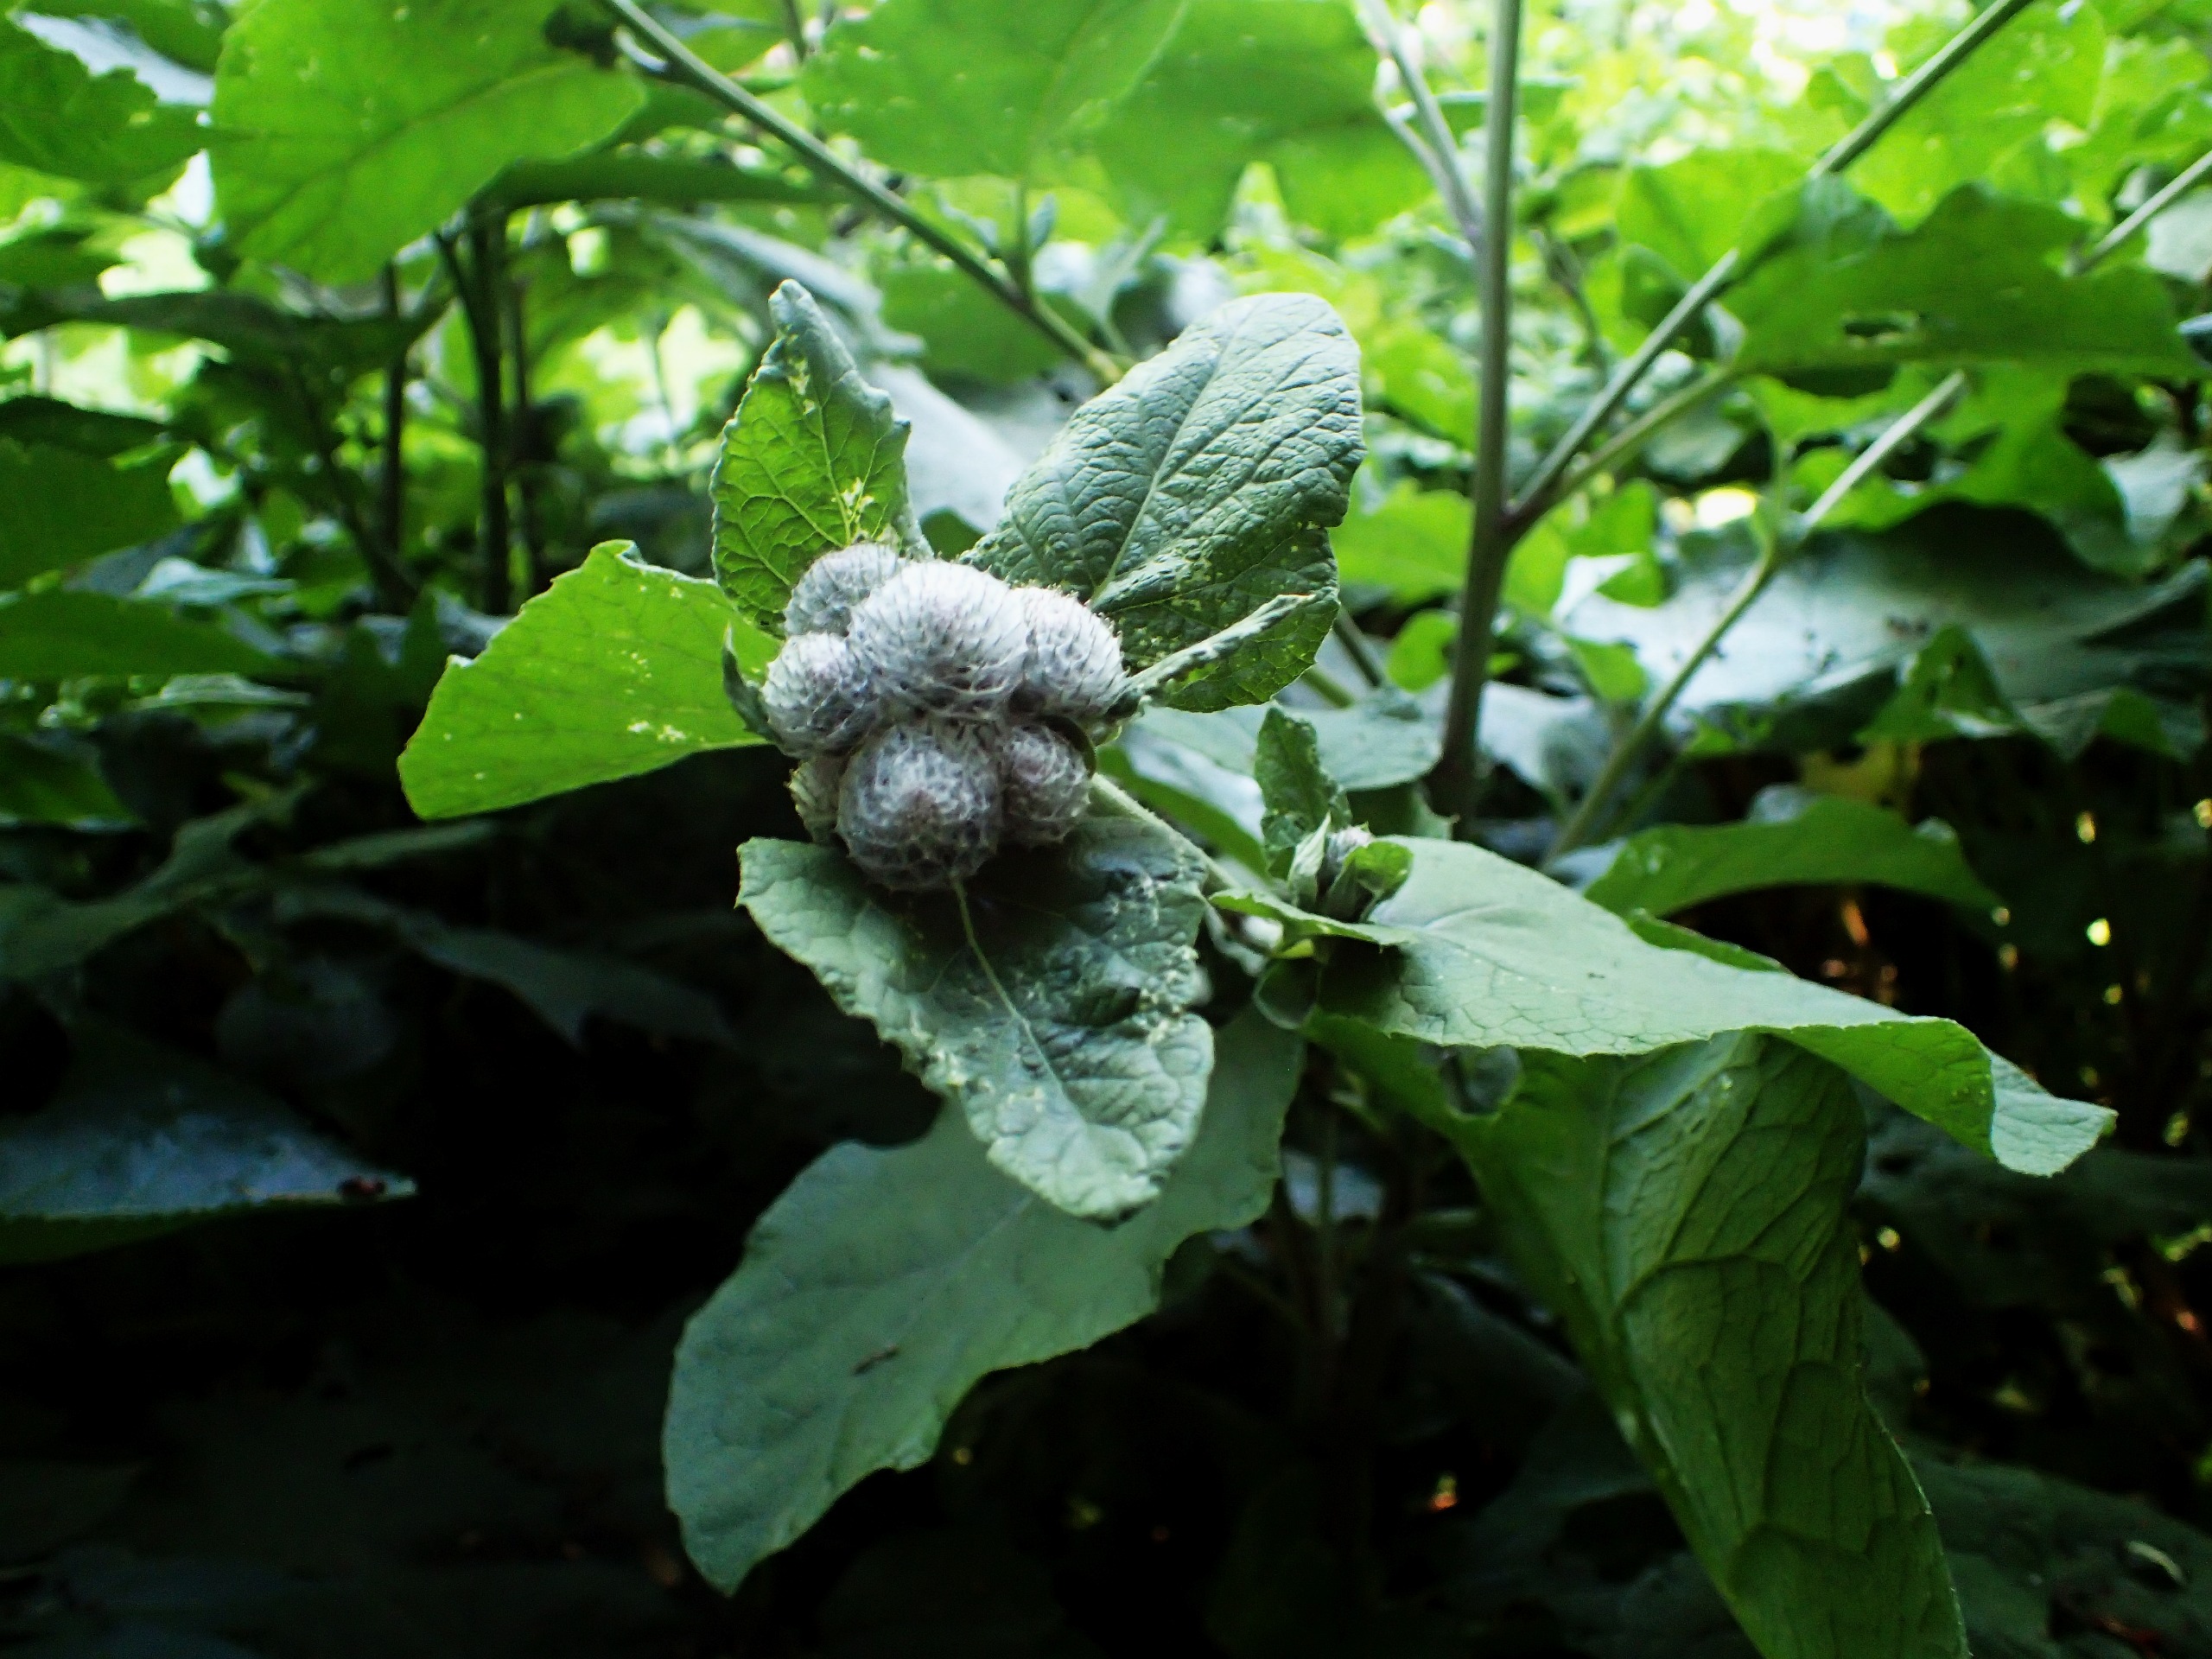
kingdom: Plantae
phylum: Tracheophyta
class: Magnoliopsida
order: Asterales
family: Asteraceae
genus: Arctium
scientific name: Arctium tomentosum
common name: Filtet burre
